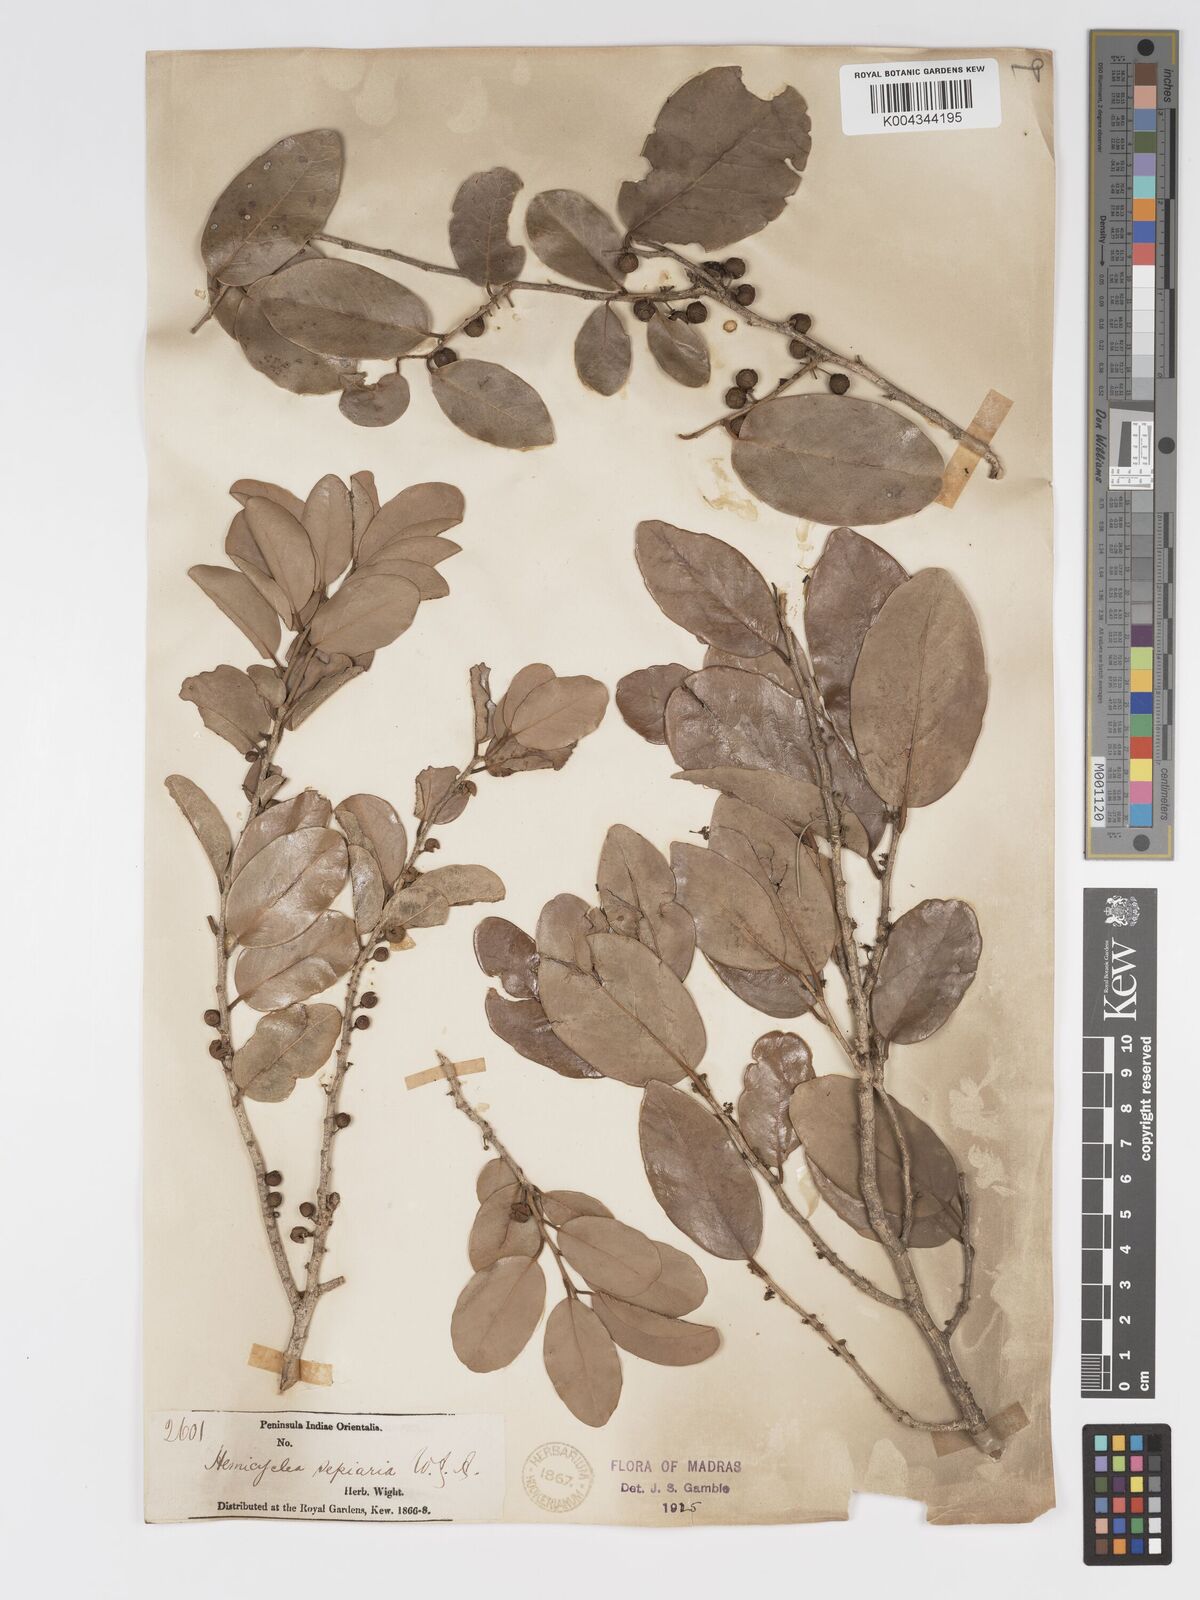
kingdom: Plantae
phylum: Tracheophyta
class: Magnoliopsida
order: Malpighiales
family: Putranjivaceae
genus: Drypetes
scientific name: Drypetes sepiaria
